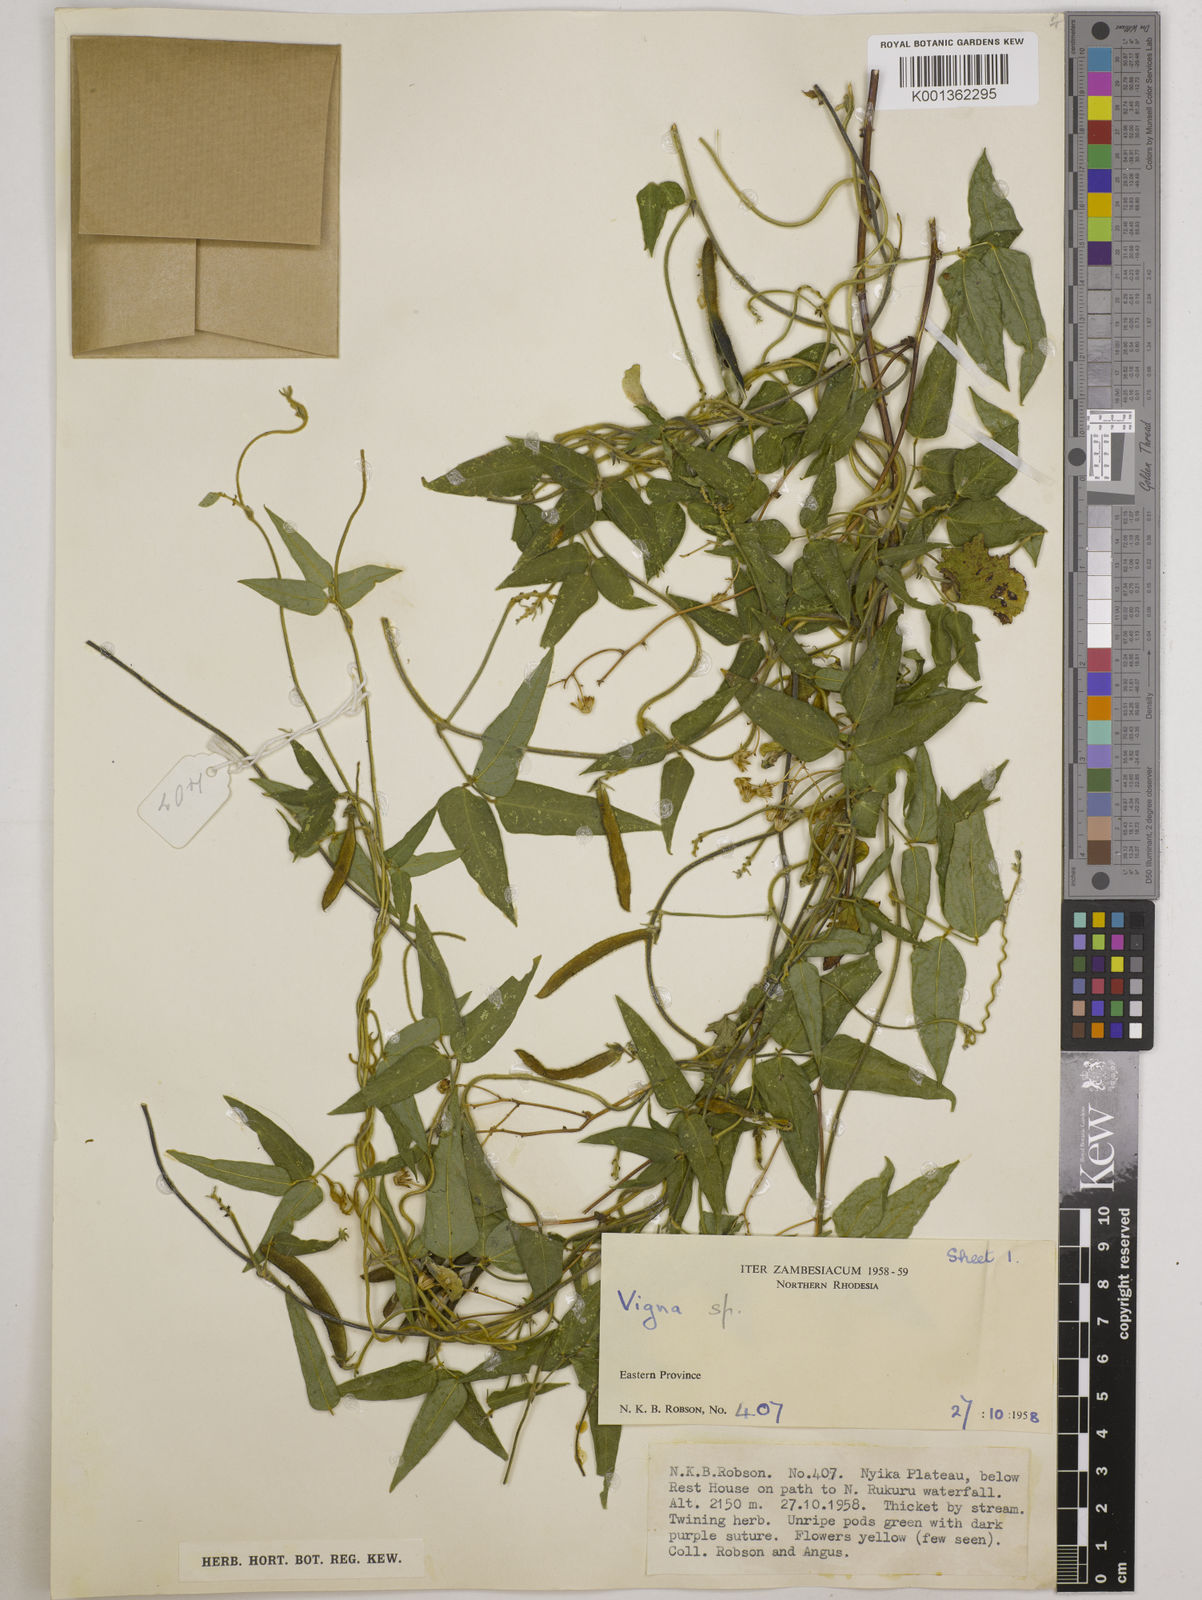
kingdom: Plantae
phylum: Tracheophyta
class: Magnoliopsida
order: Fabales
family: Fabaceae
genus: Vigna
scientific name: Vigna oblongifolia
